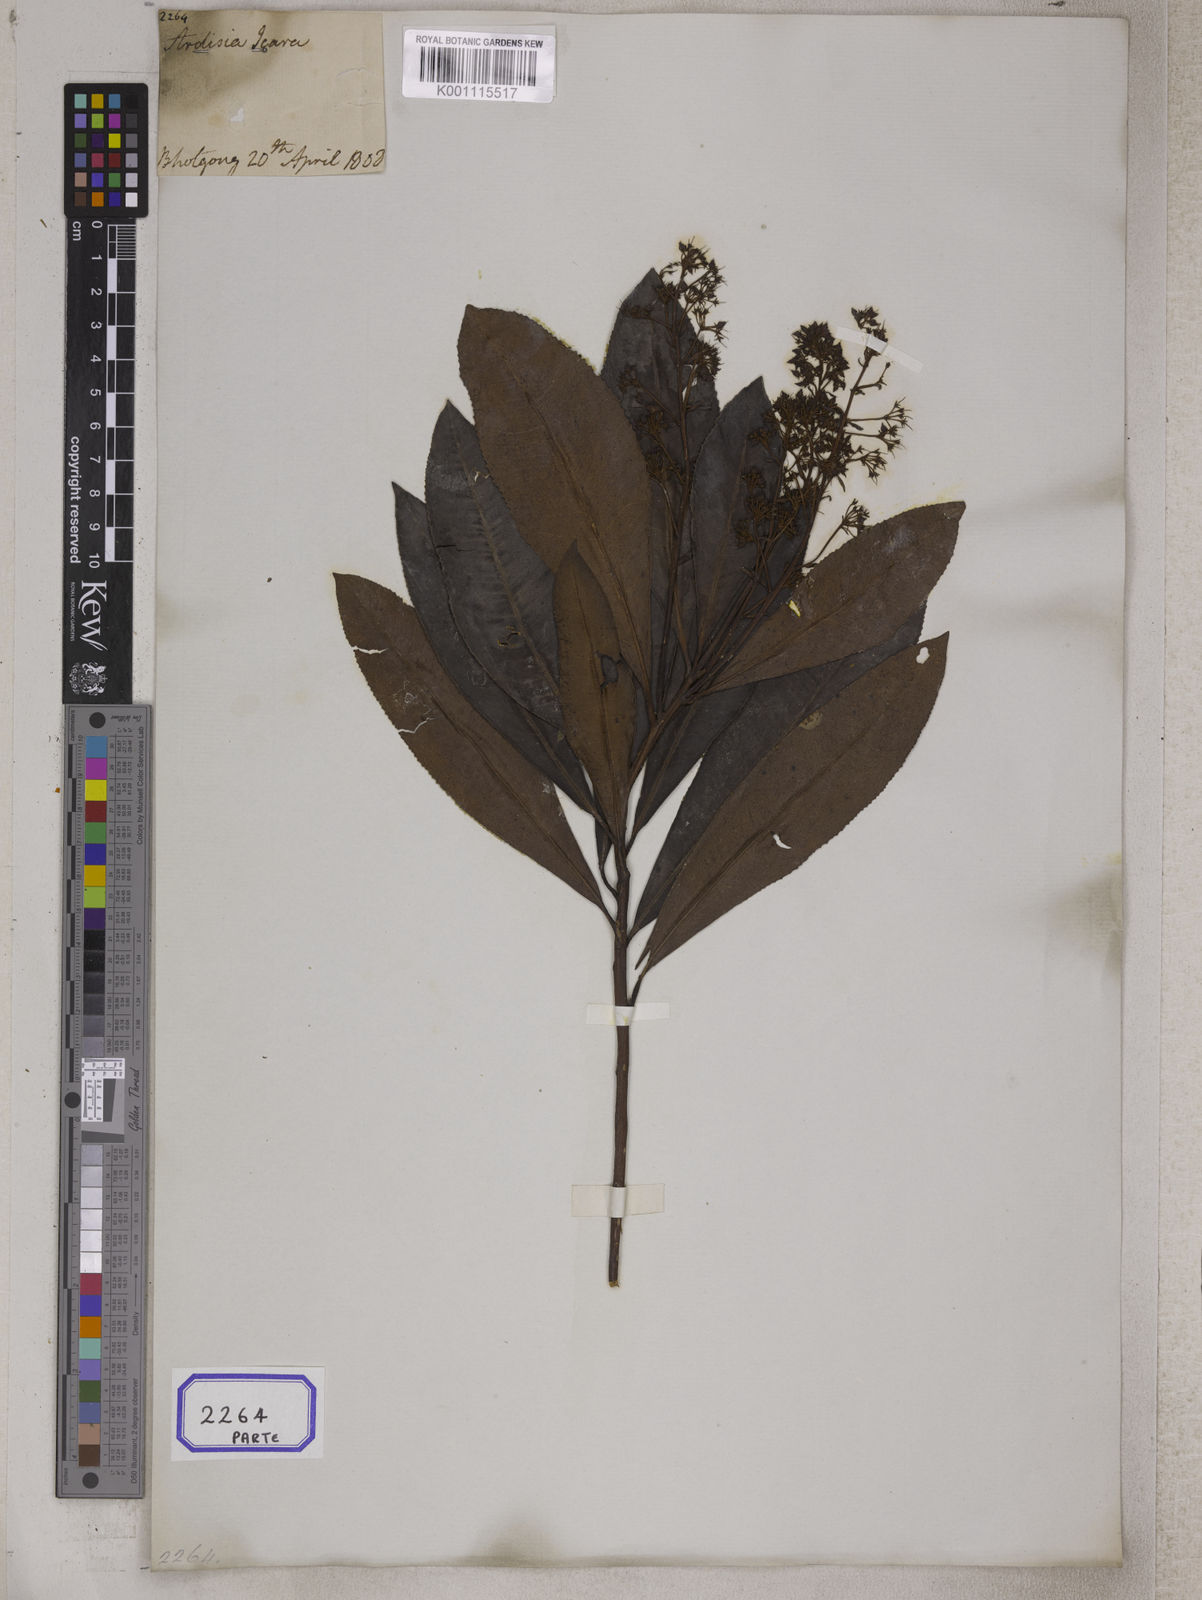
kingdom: Plantae
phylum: Tracheophyta
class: Magnoliopsida
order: Ericales
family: Primulaceae
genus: Ardisia
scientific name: Ardisia
